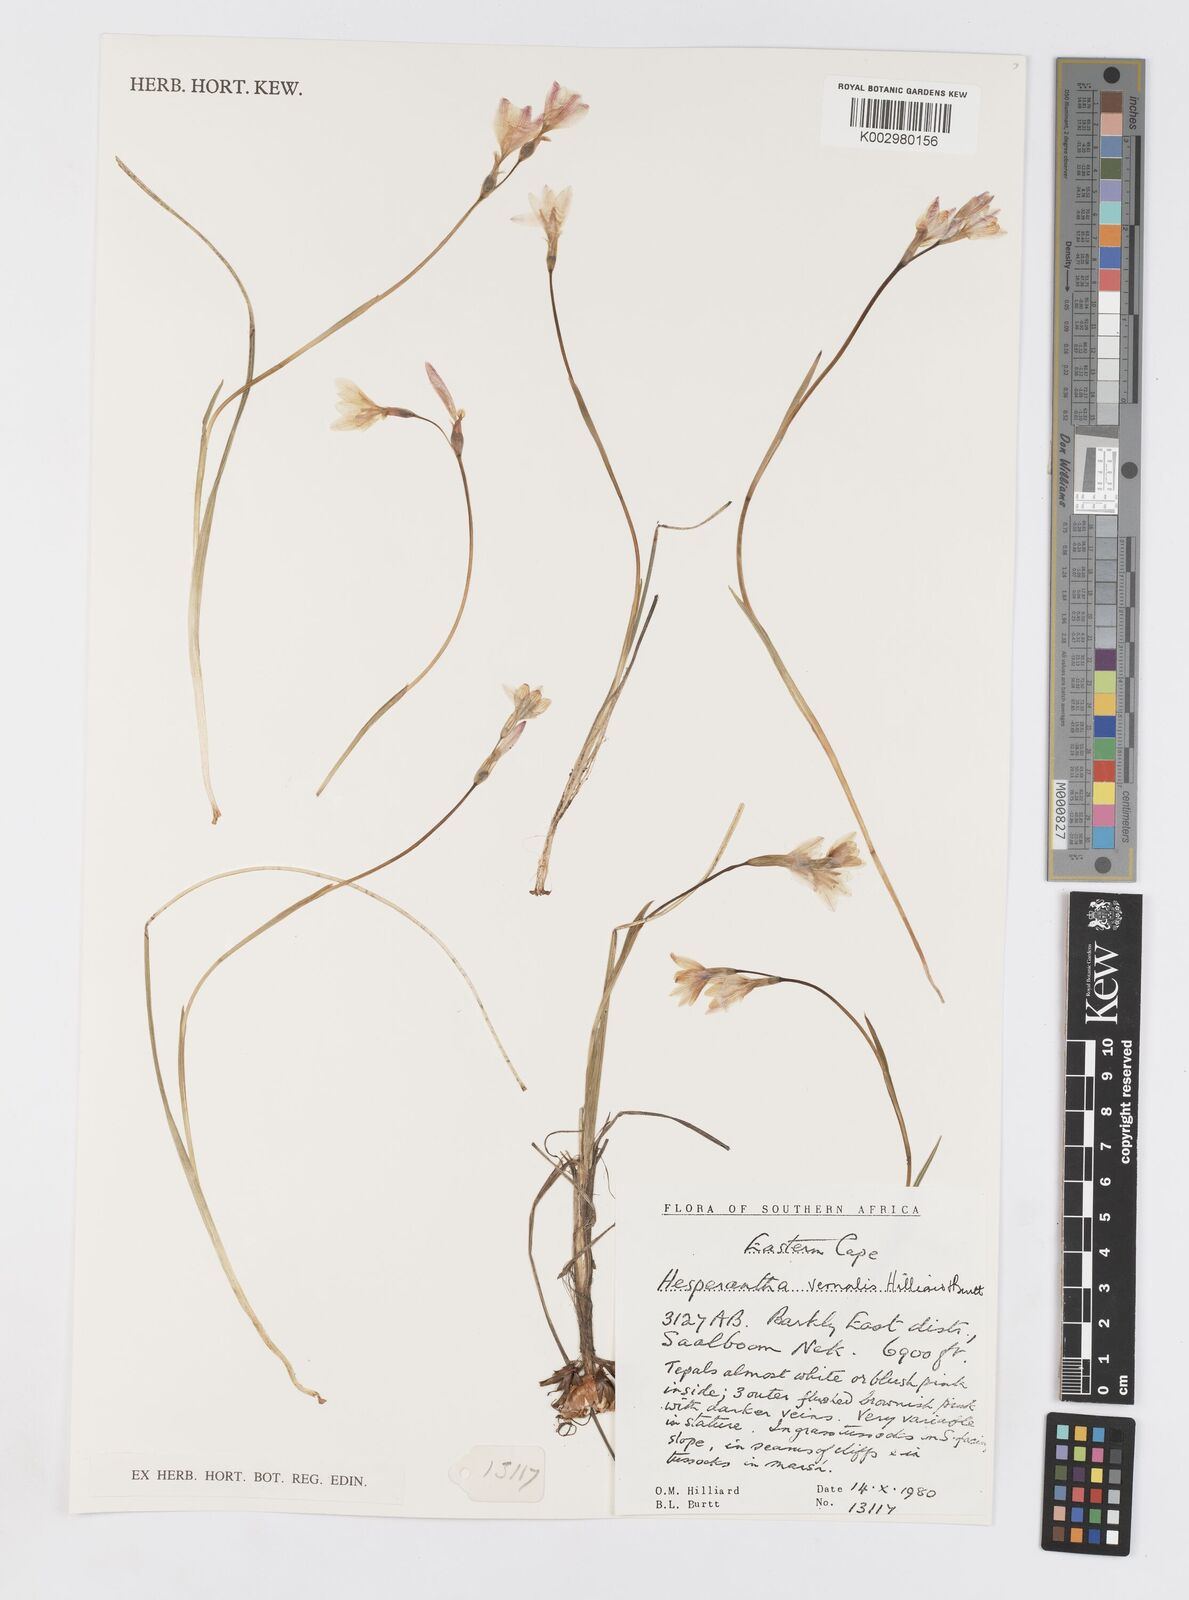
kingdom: Plantae
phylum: Tracheophyta
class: Liliopsida
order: Asparagales
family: Iridaceae
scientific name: Iridaceae
